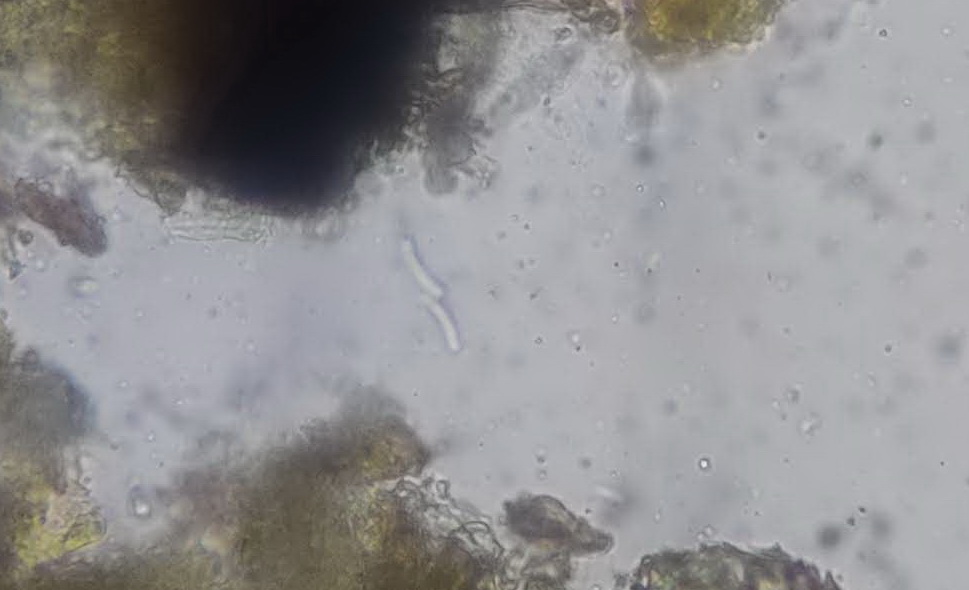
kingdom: Fungi
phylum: Ascomycota
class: Sordariomycetes
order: Diaporthales
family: Valsaceae
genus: Cytospora
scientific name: Cytospora nivea
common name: hvidskivet kulknippe
